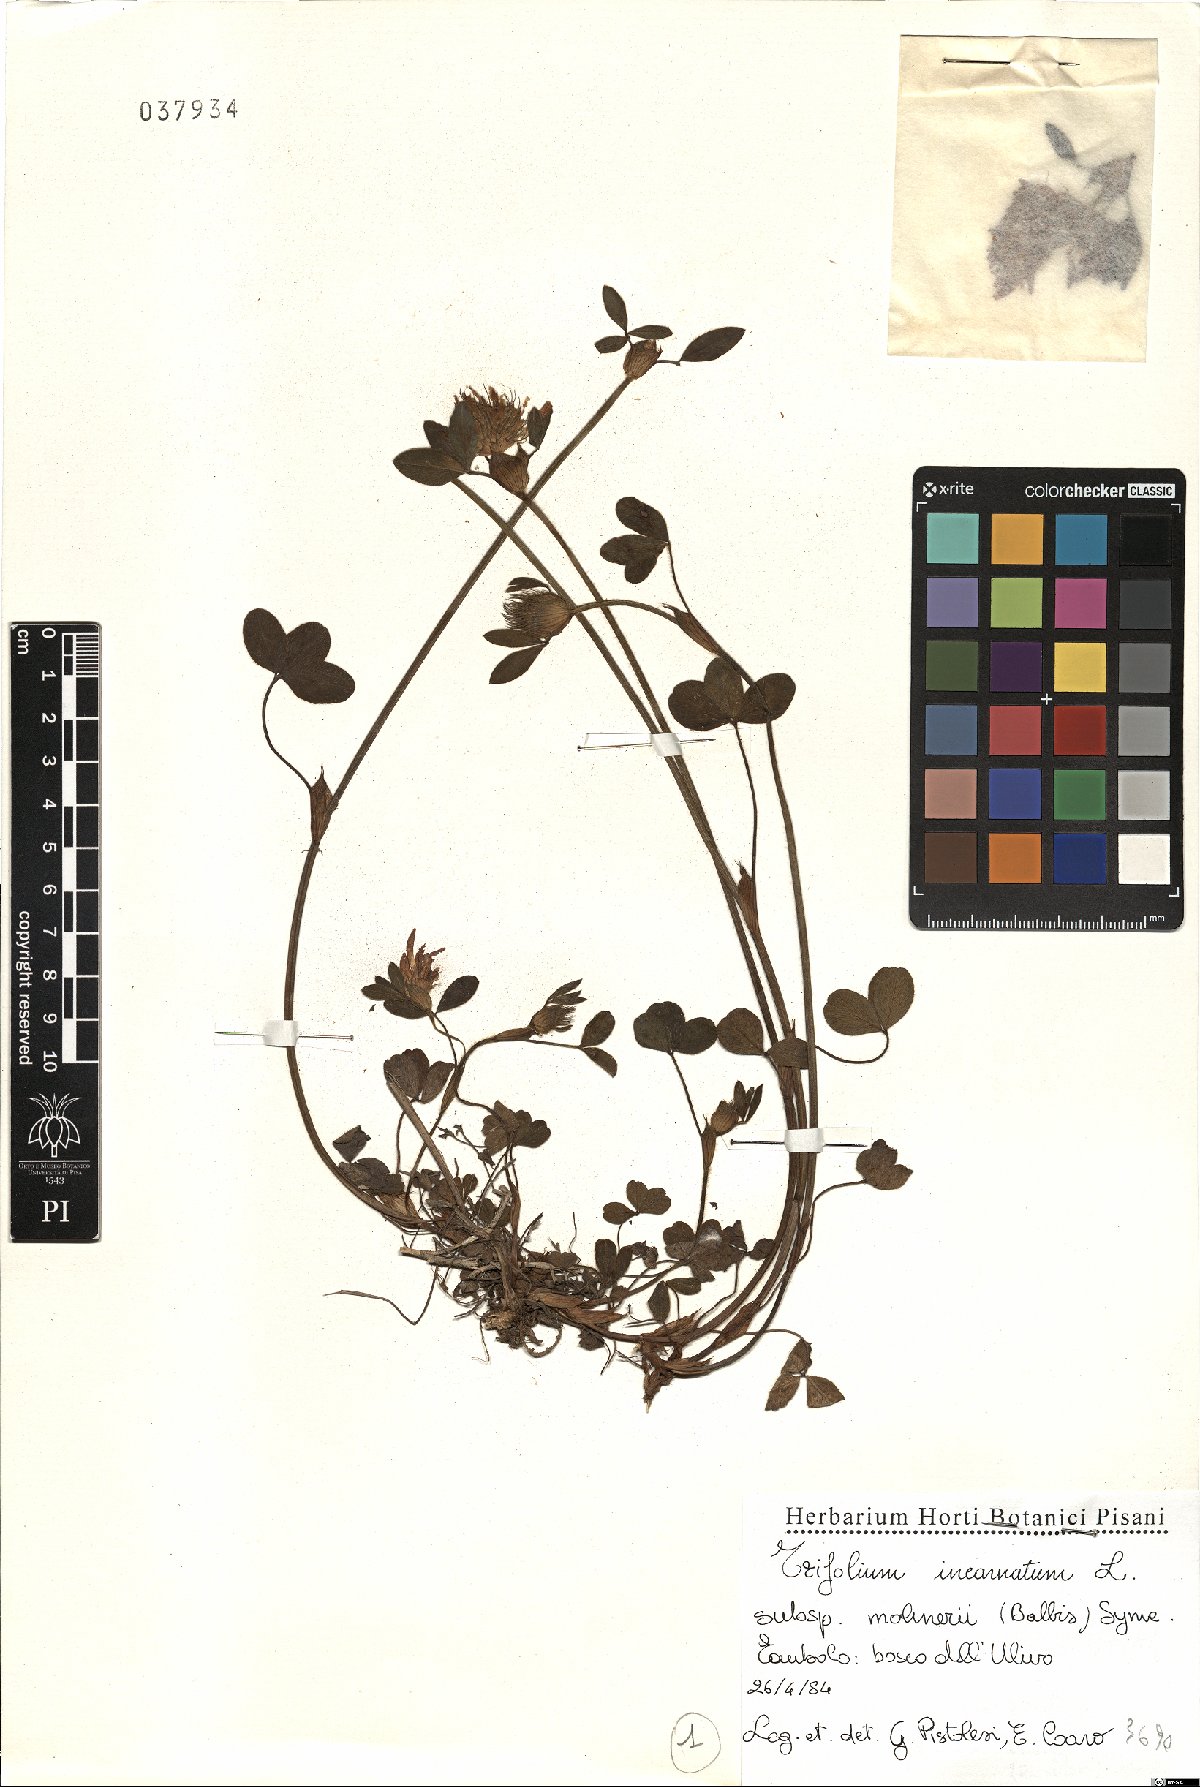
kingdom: Plantae
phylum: Tracheophyta
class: Magnoliopsida
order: Fabales
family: Fabaceae
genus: Trifolium
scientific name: Trifolium incarnatum
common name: Crimson clover
